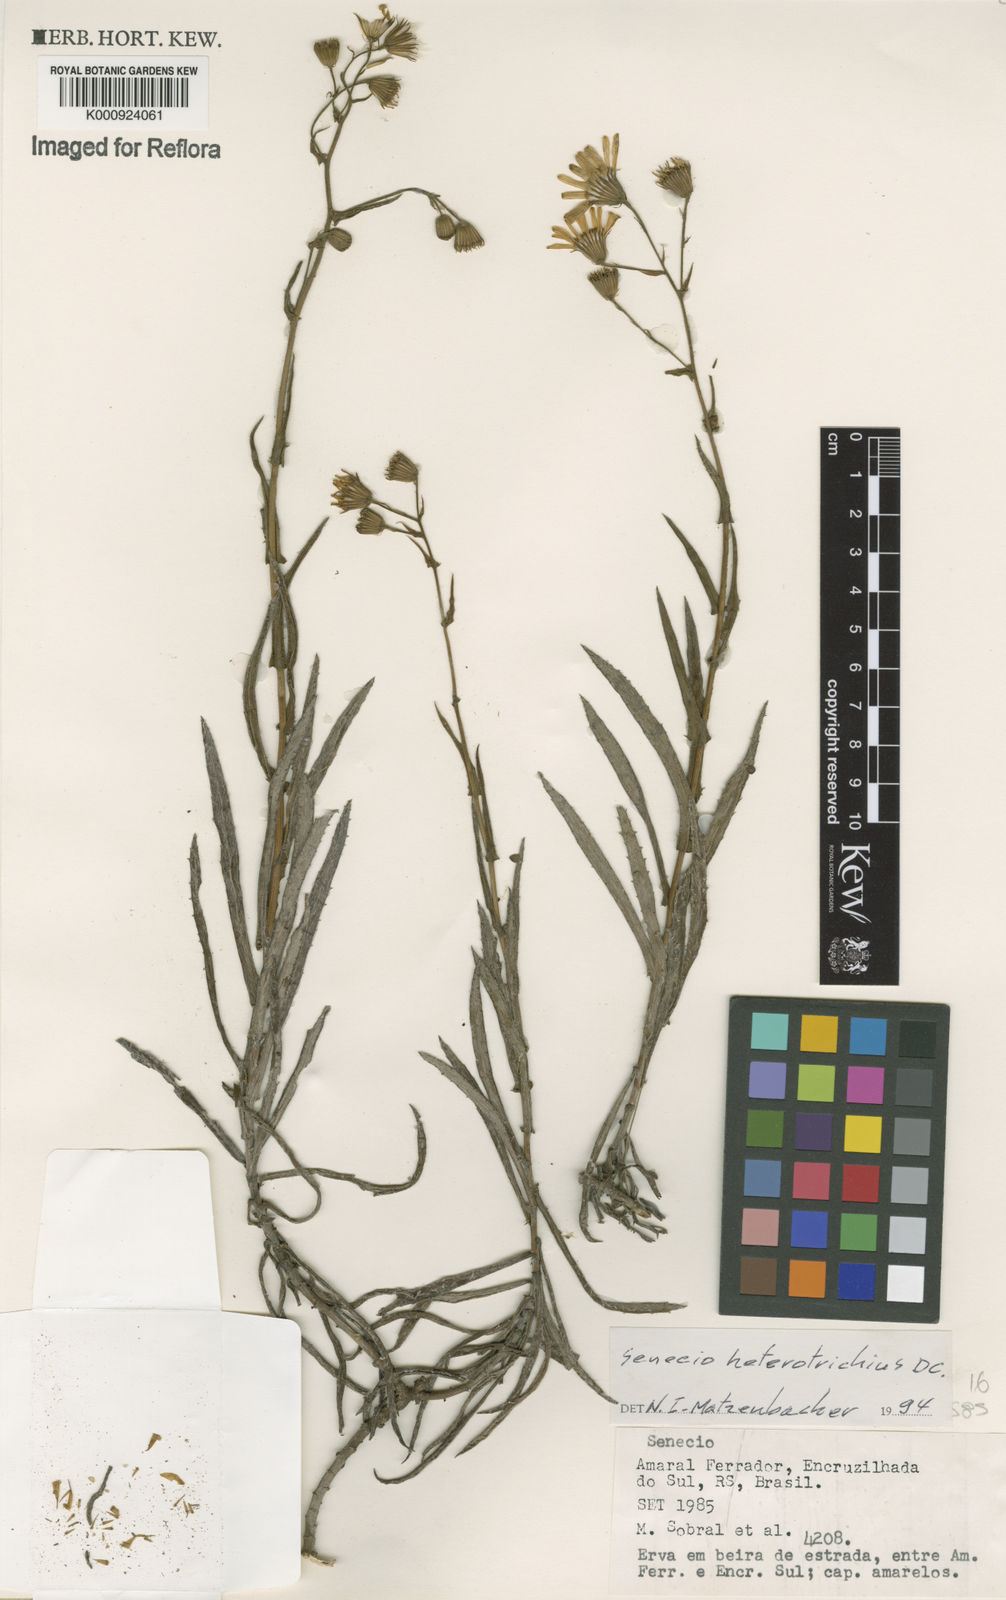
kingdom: Plantae
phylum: Tracheophyta
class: Magnoliopsida
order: Asterales
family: Asteraceae
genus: Senecio
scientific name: Senecio heterotrichius
